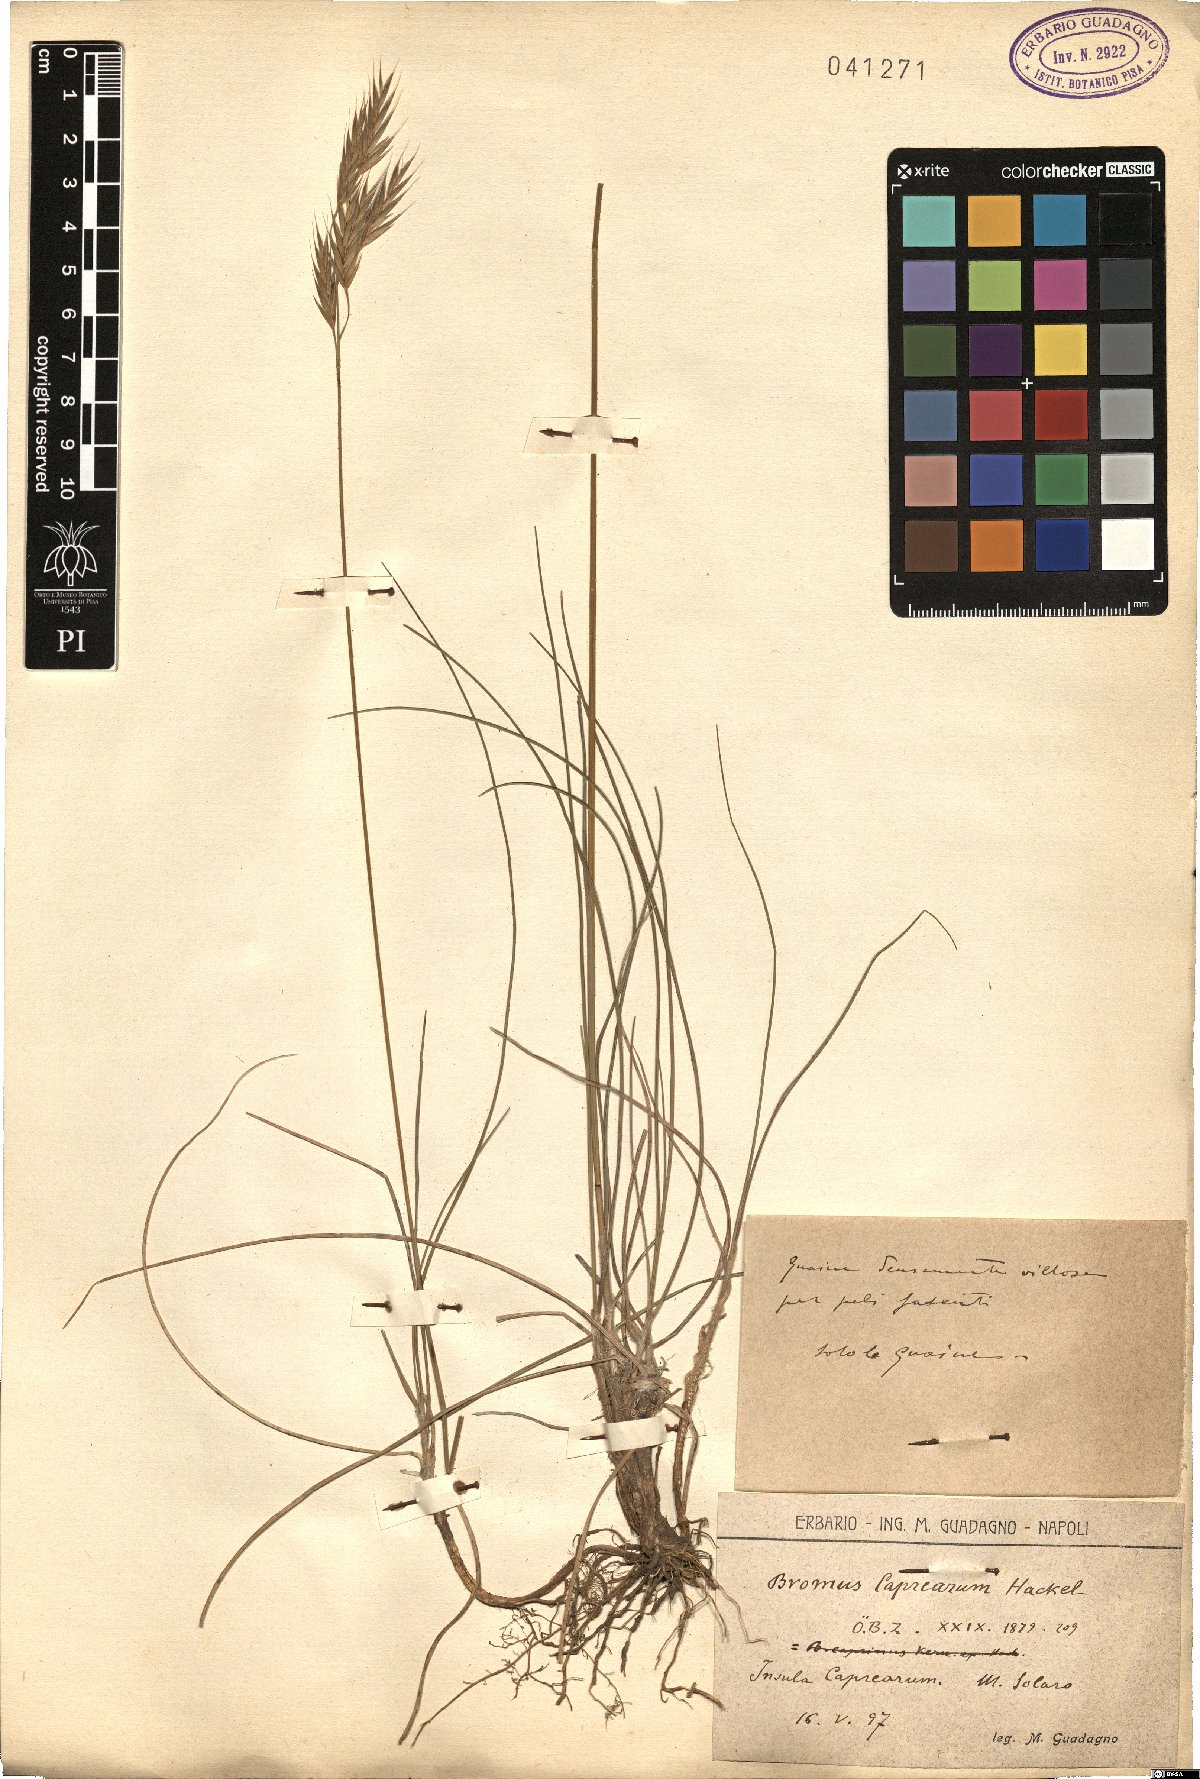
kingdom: Plantae
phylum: Tracheophyta
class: Liliopsida
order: Poales
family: Poaceae
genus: Bromus
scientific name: Bromus erectus
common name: Erect brome
